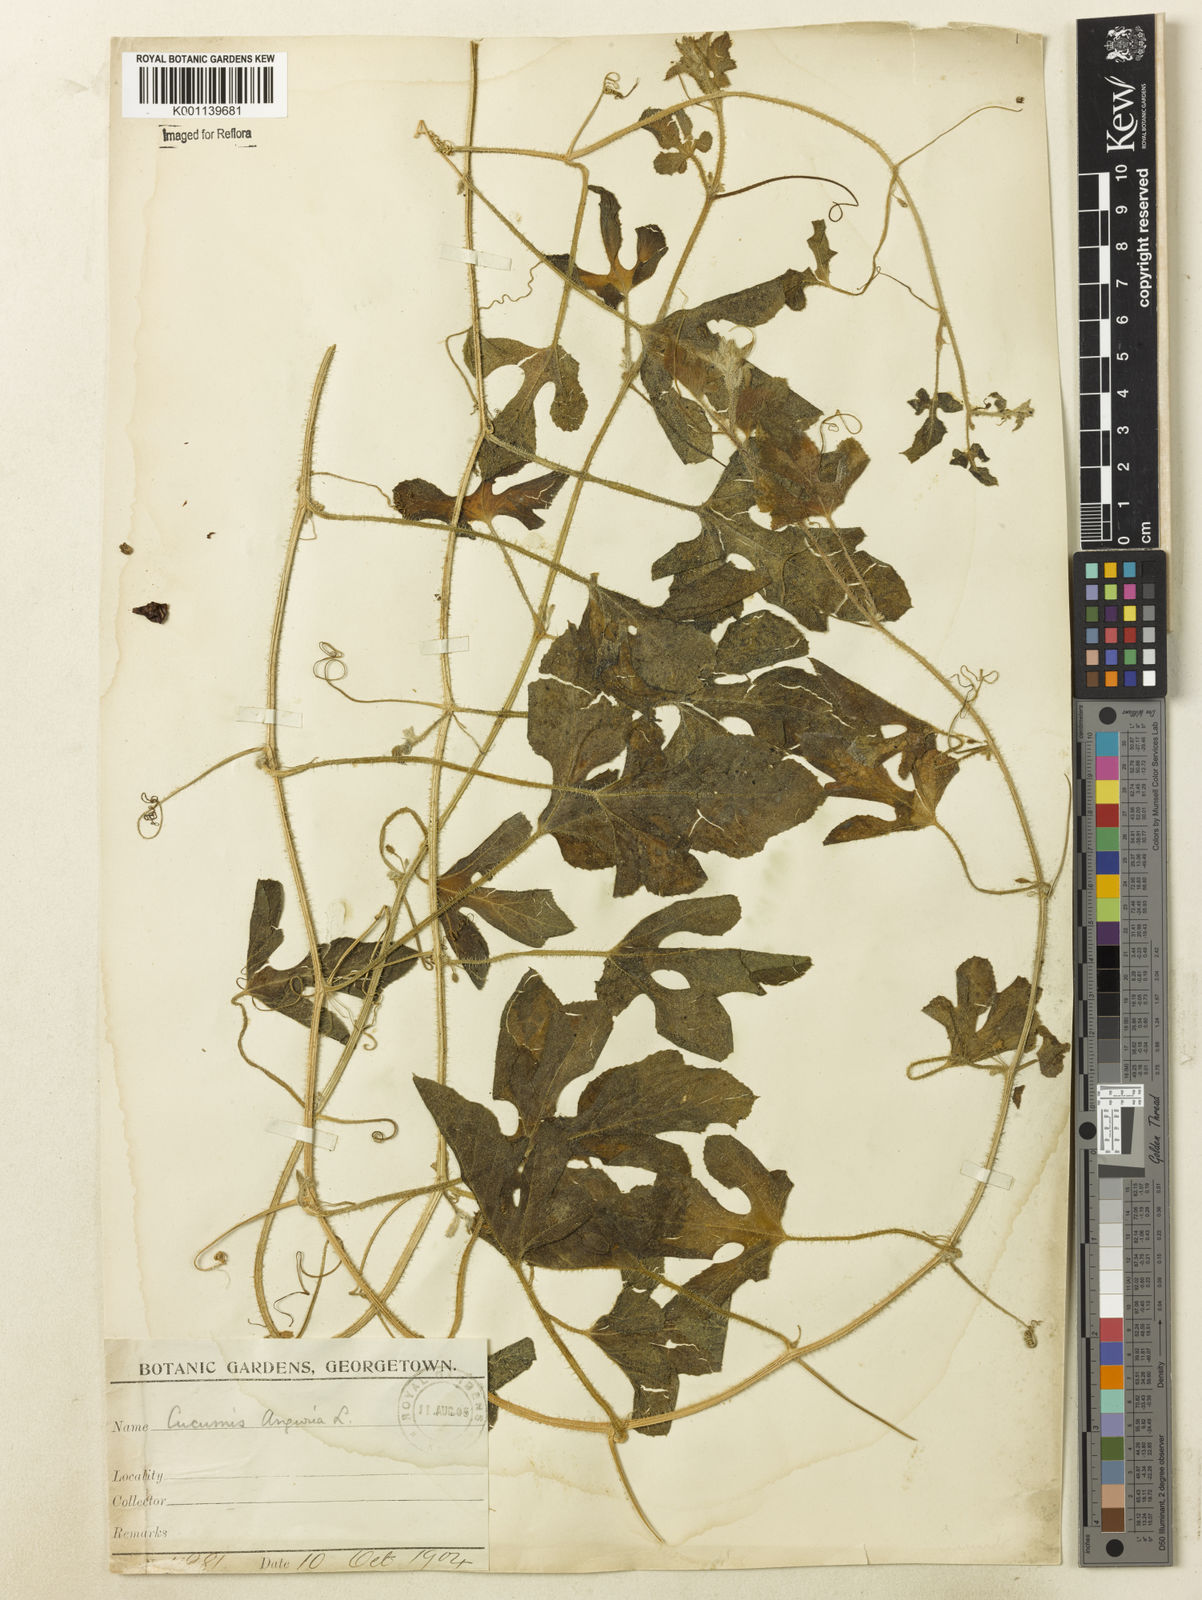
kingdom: Plantae
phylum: Tracheophyta
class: Magnoliopsida
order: Cucurbitales
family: Cucurbitaceae
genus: Cucumis
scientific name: Cucumis anguria
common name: West indian gherkin
